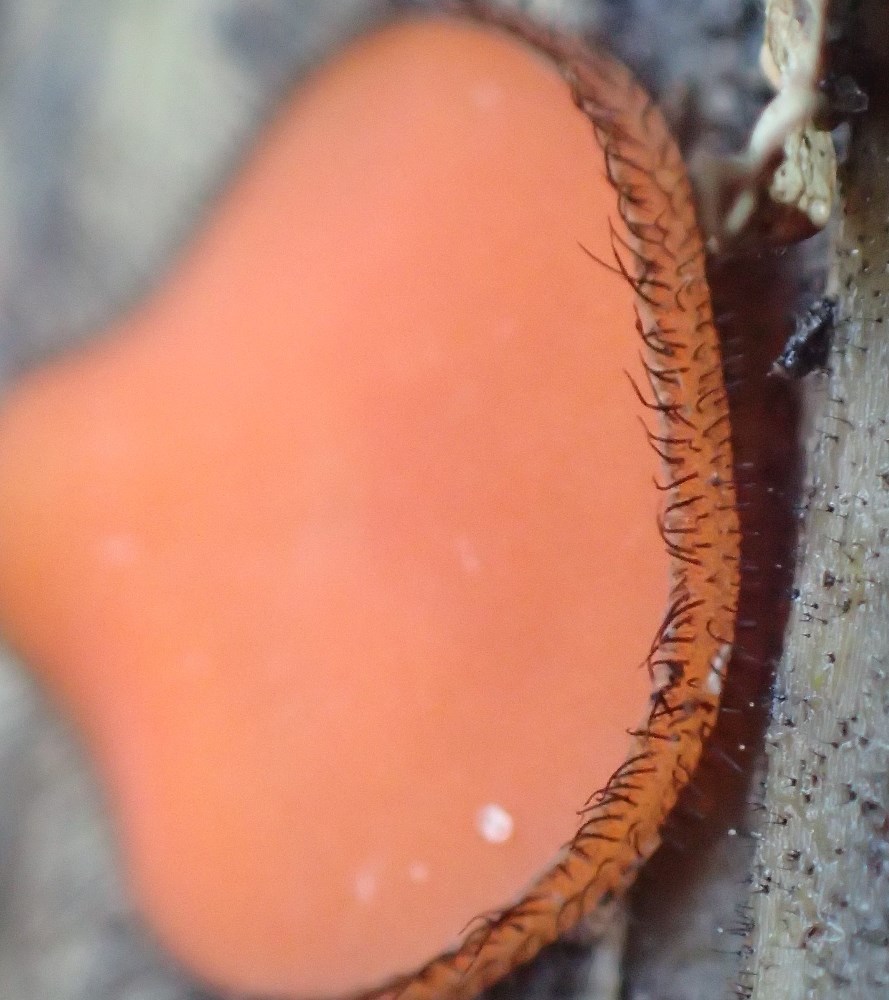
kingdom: Fungi
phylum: Ascomycota
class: Pezizomycetes
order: Pezizales
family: Pyronemataceae
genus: Scutellinia
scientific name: Scutellinia scutellata
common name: frynset skjoldbæger
